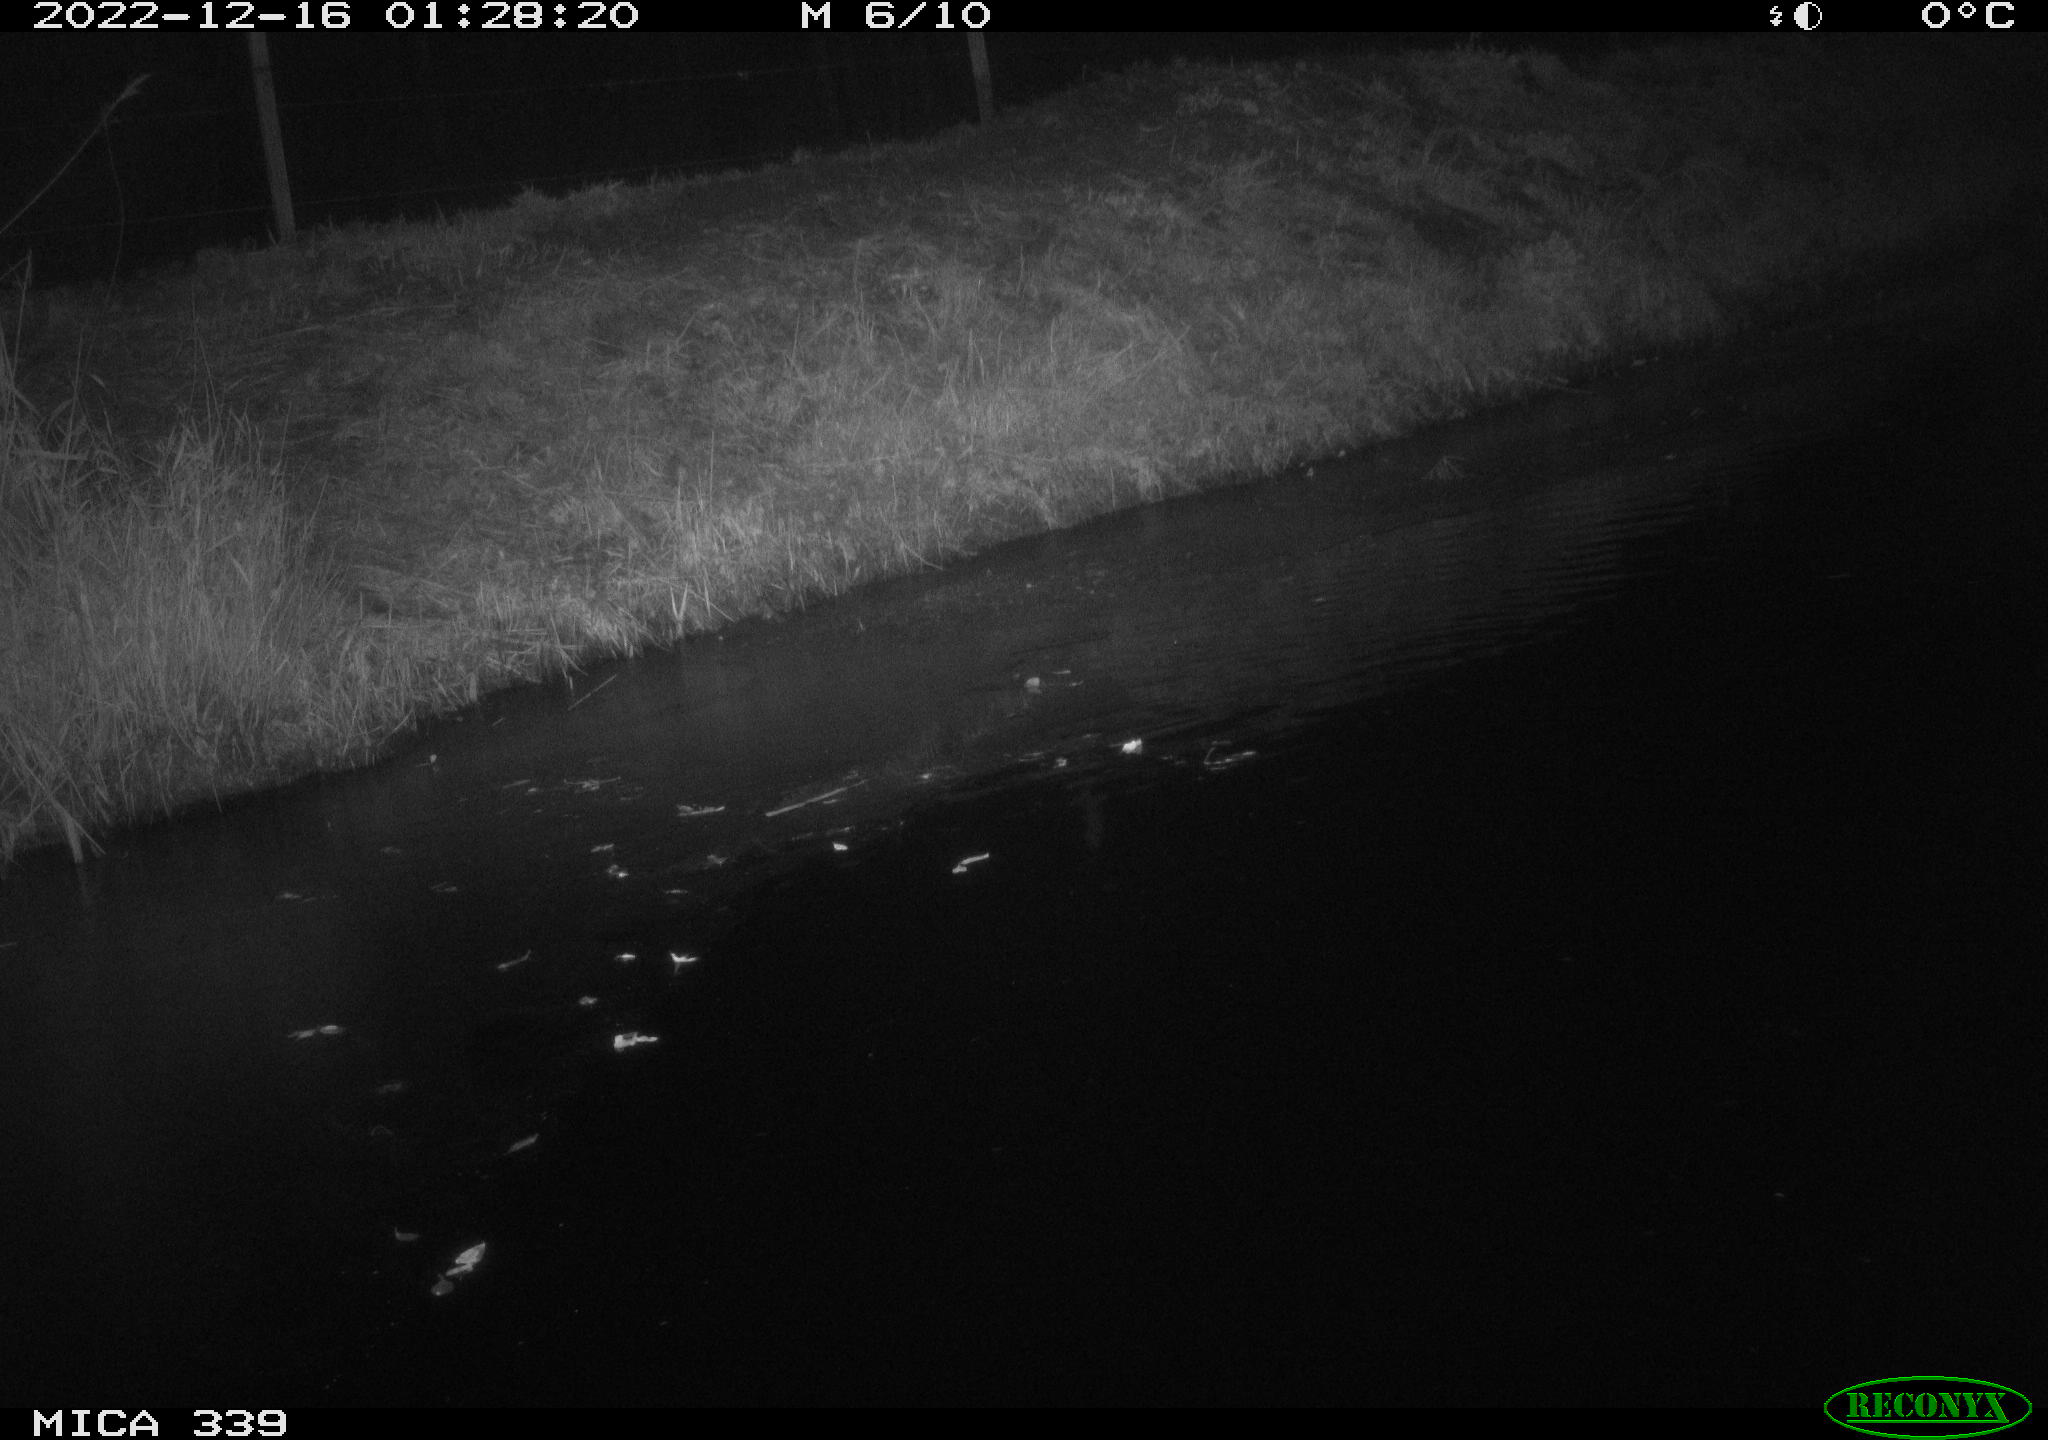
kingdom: Animalia
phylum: Chordata
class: Mammalia
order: Carnivora
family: Mustelidae
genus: Martes
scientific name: Martes foina
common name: Beech marten
